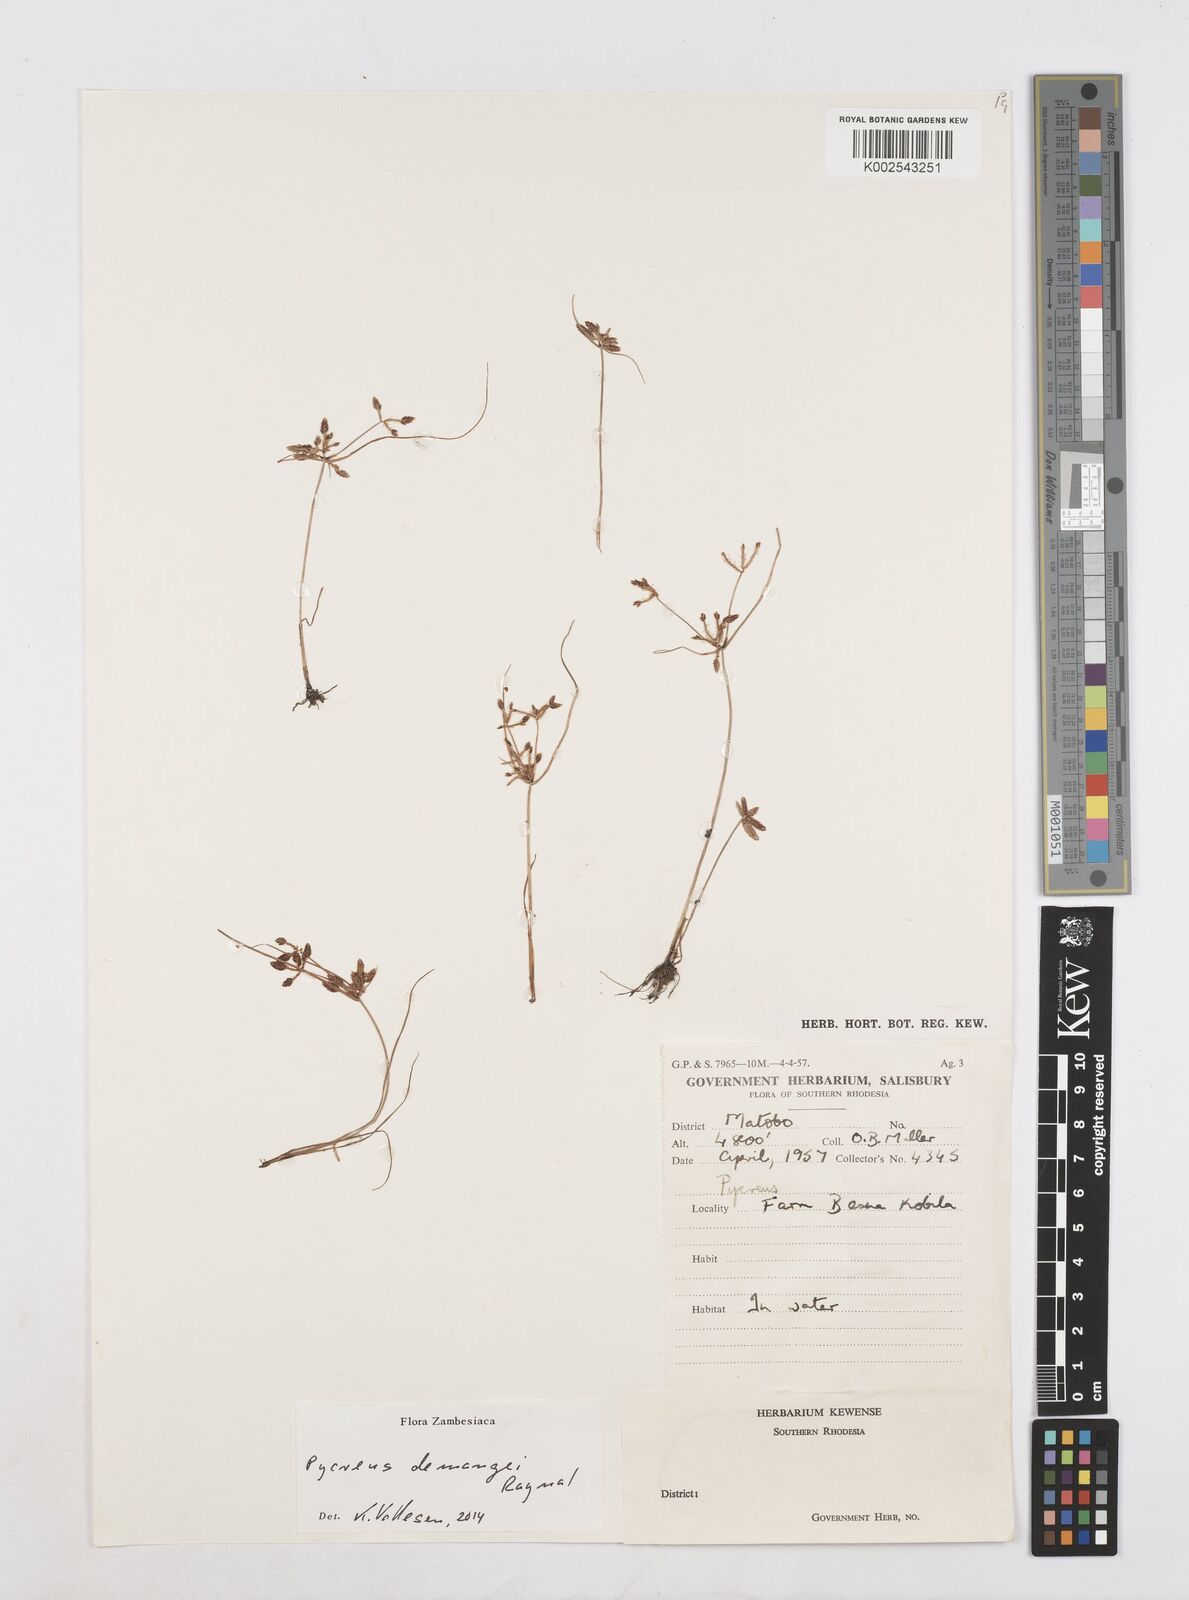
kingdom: Plantae
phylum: Tracheophyta
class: Liliopsida
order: Poales
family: Cyperaceae
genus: Cyperus
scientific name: Cyperus demangei
